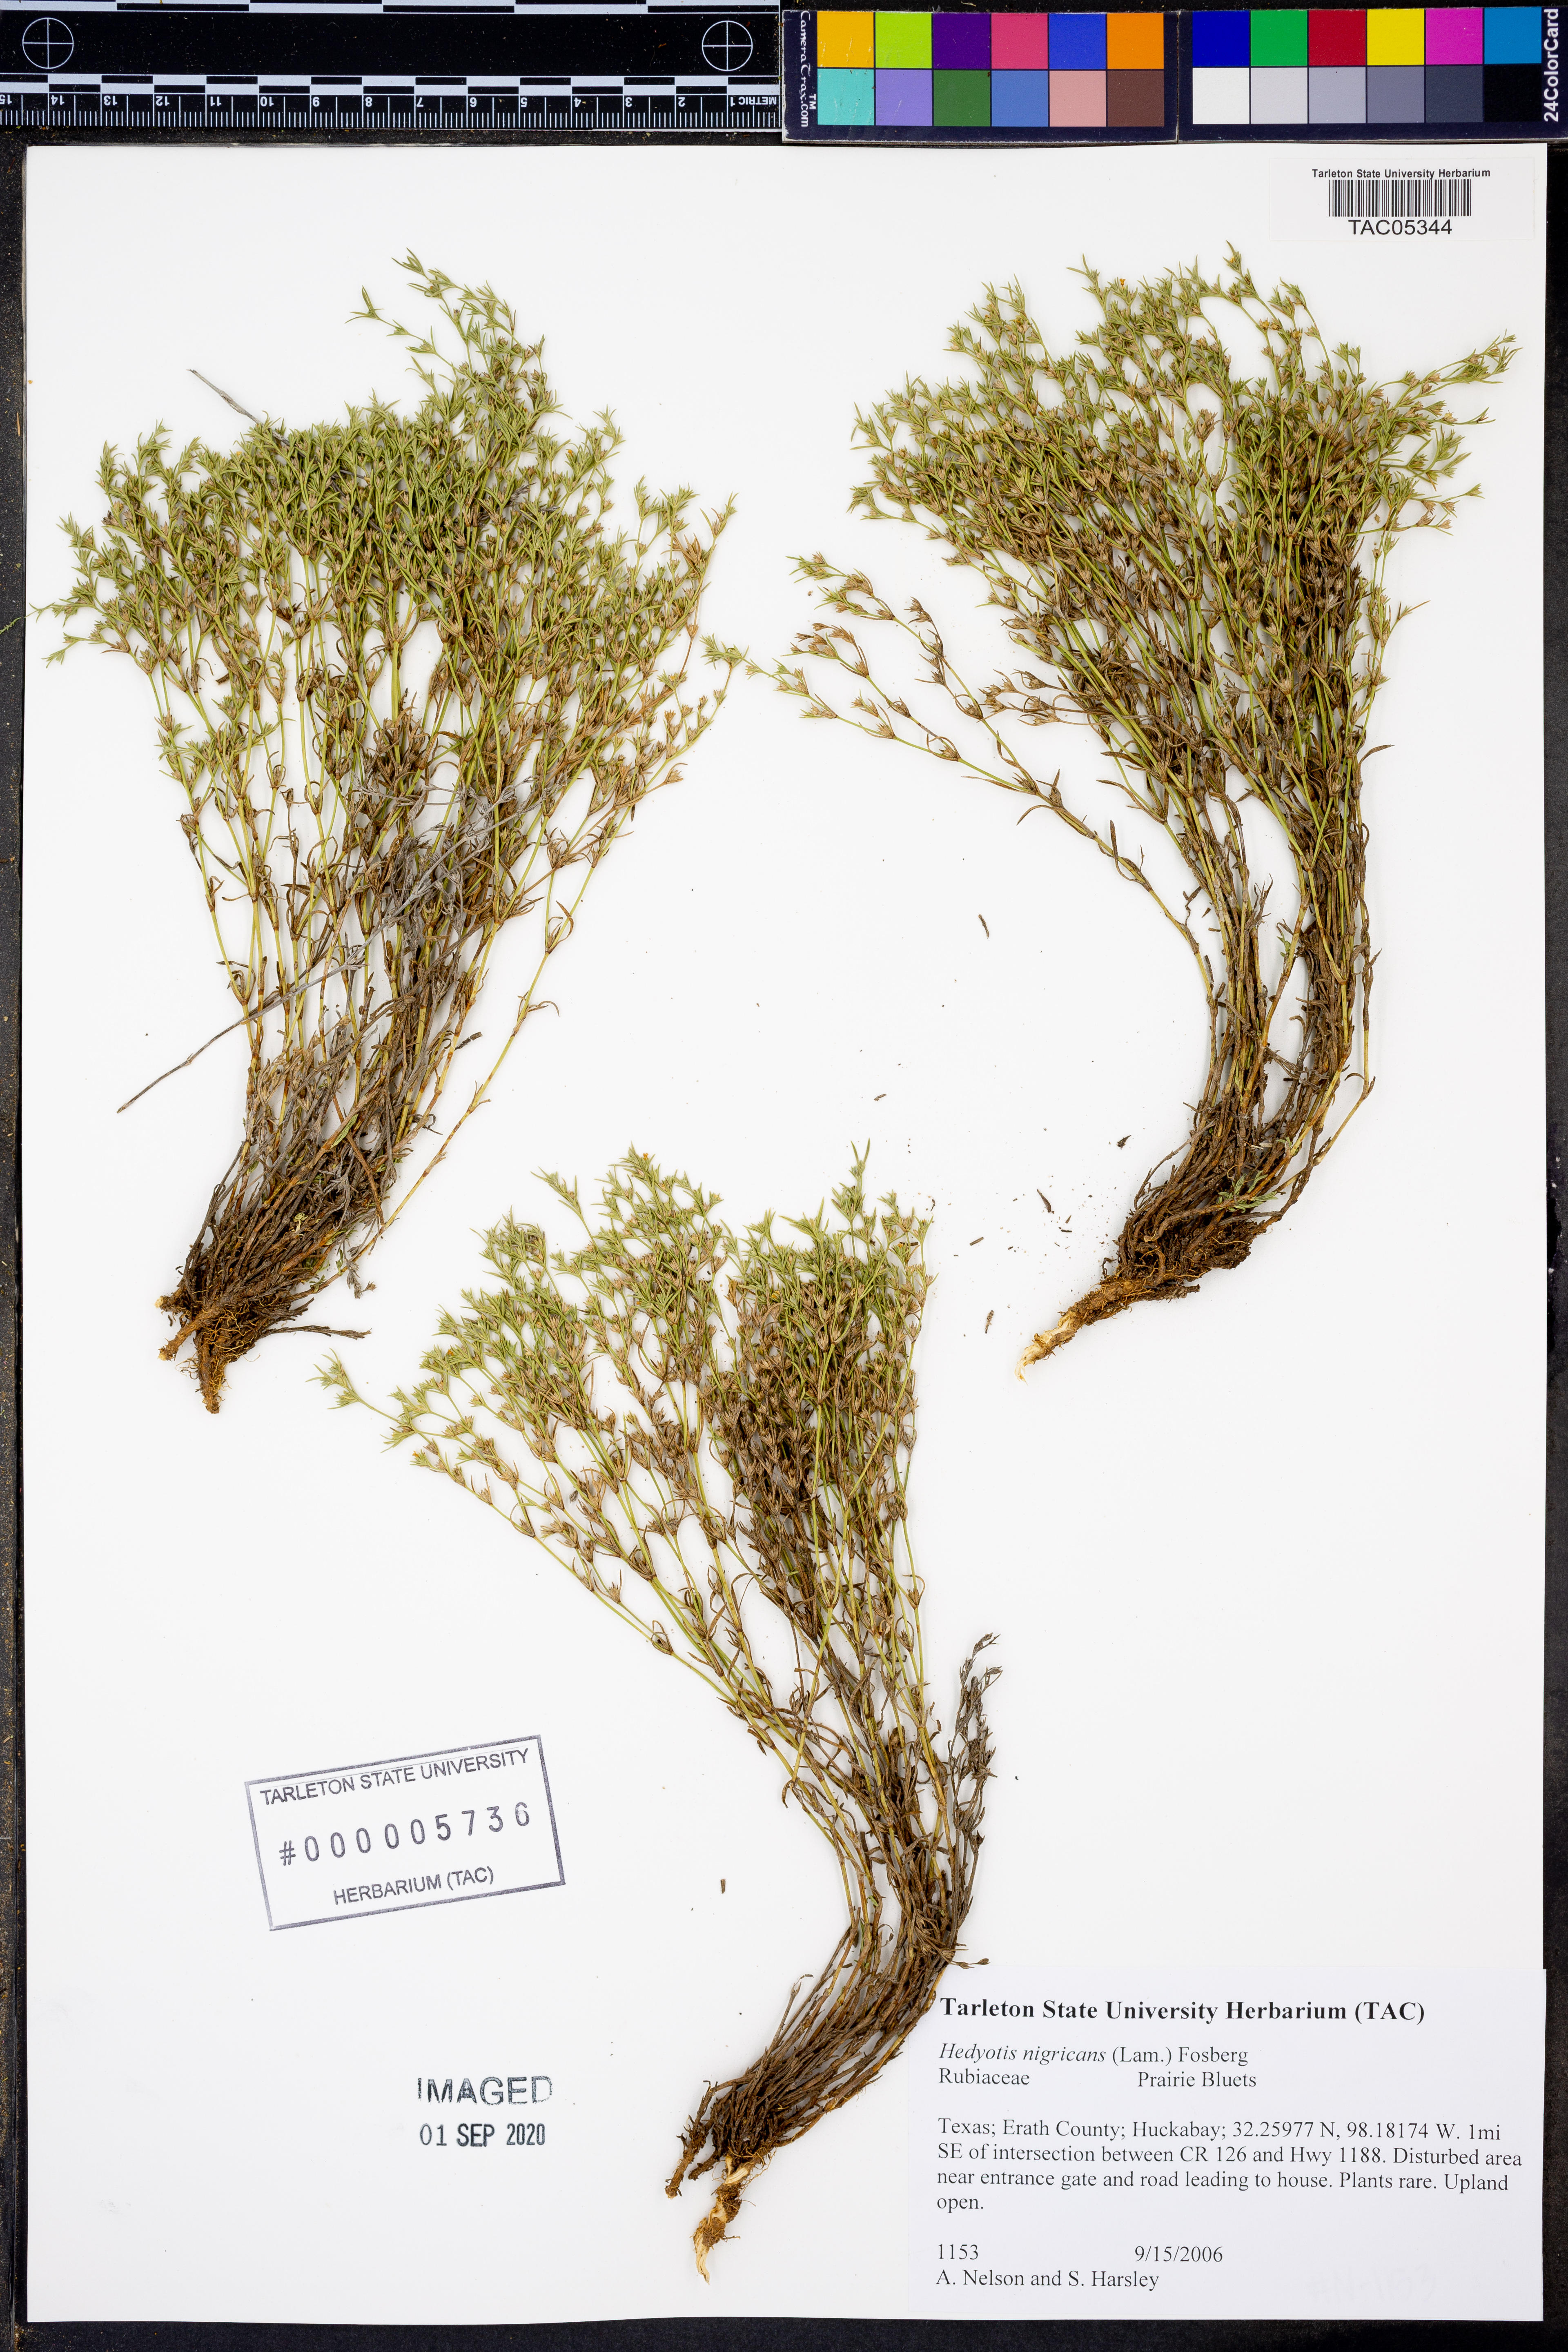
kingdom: Plantae
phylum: Tracheophyta
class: Magnoliopsida
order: Gentianales
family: Rubiaceae
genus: Stenaria
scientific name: Stenaria nigricans
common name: Diamondflowers
